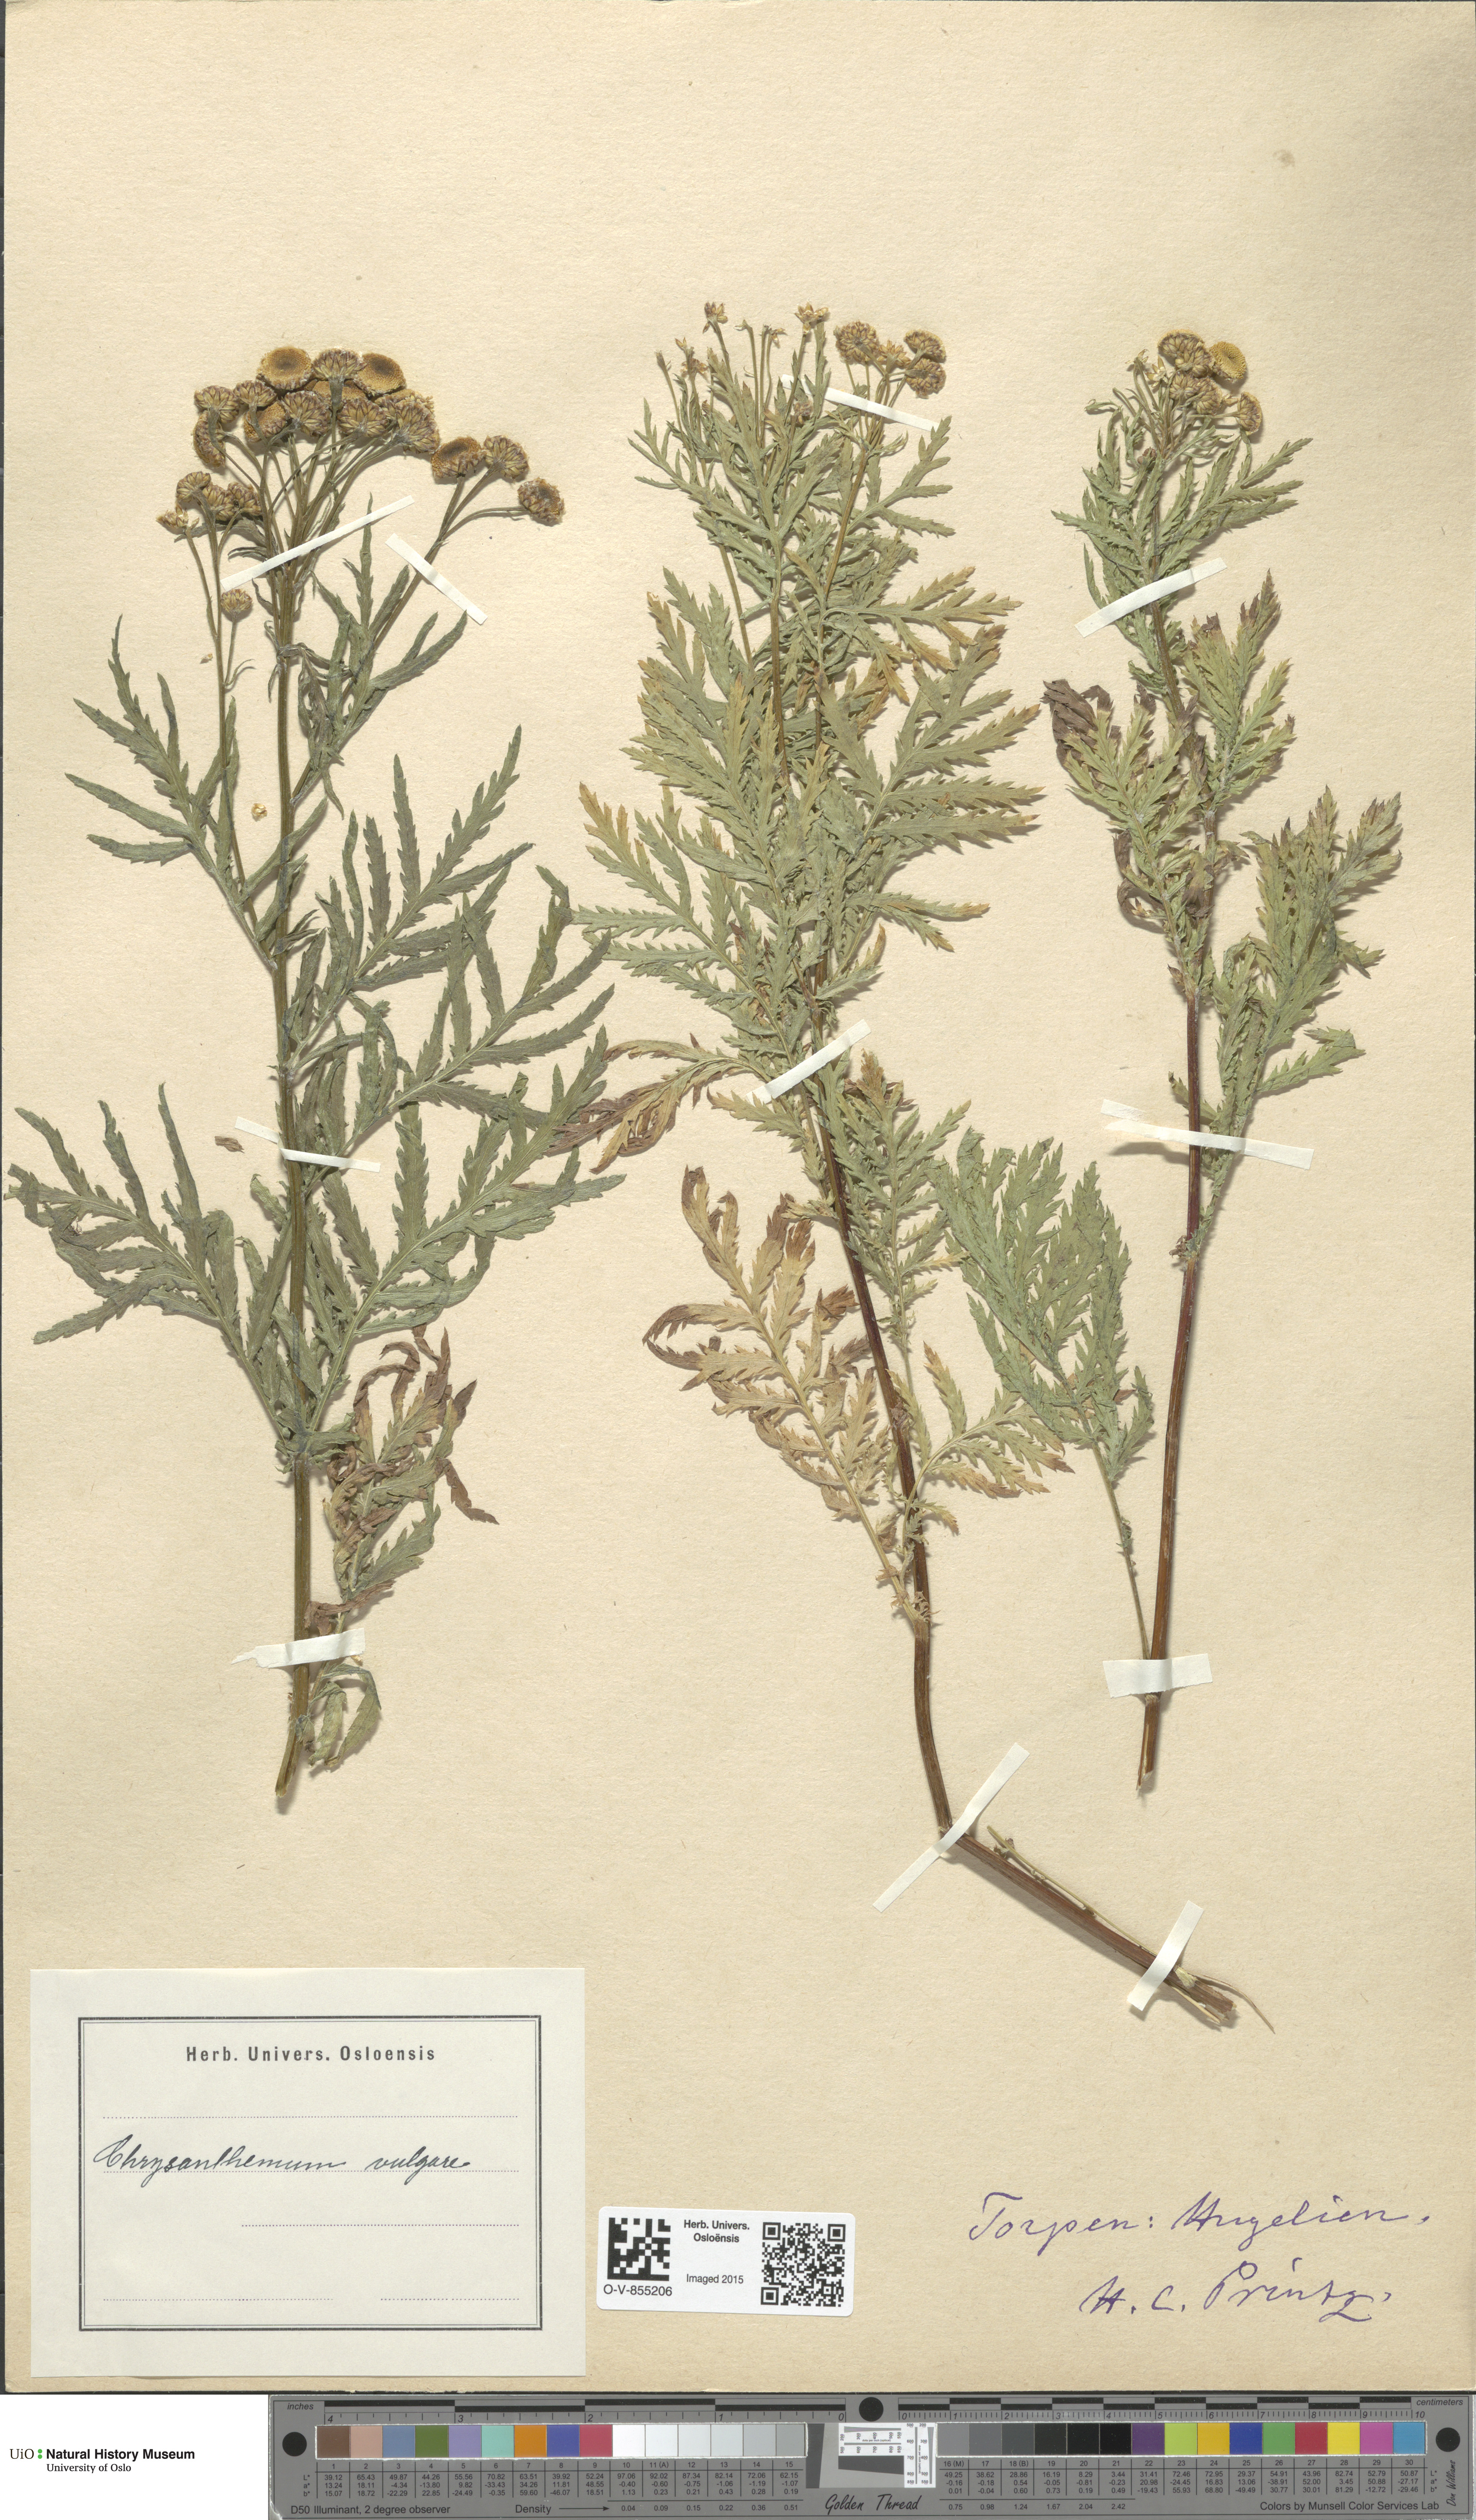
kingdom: Plantae
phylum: Tracheophyta
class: Magnoliopsida
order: Asterales
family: Asteraceae
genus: Tanacetum
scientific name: Tanacetum vulgare
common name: Common tansy
